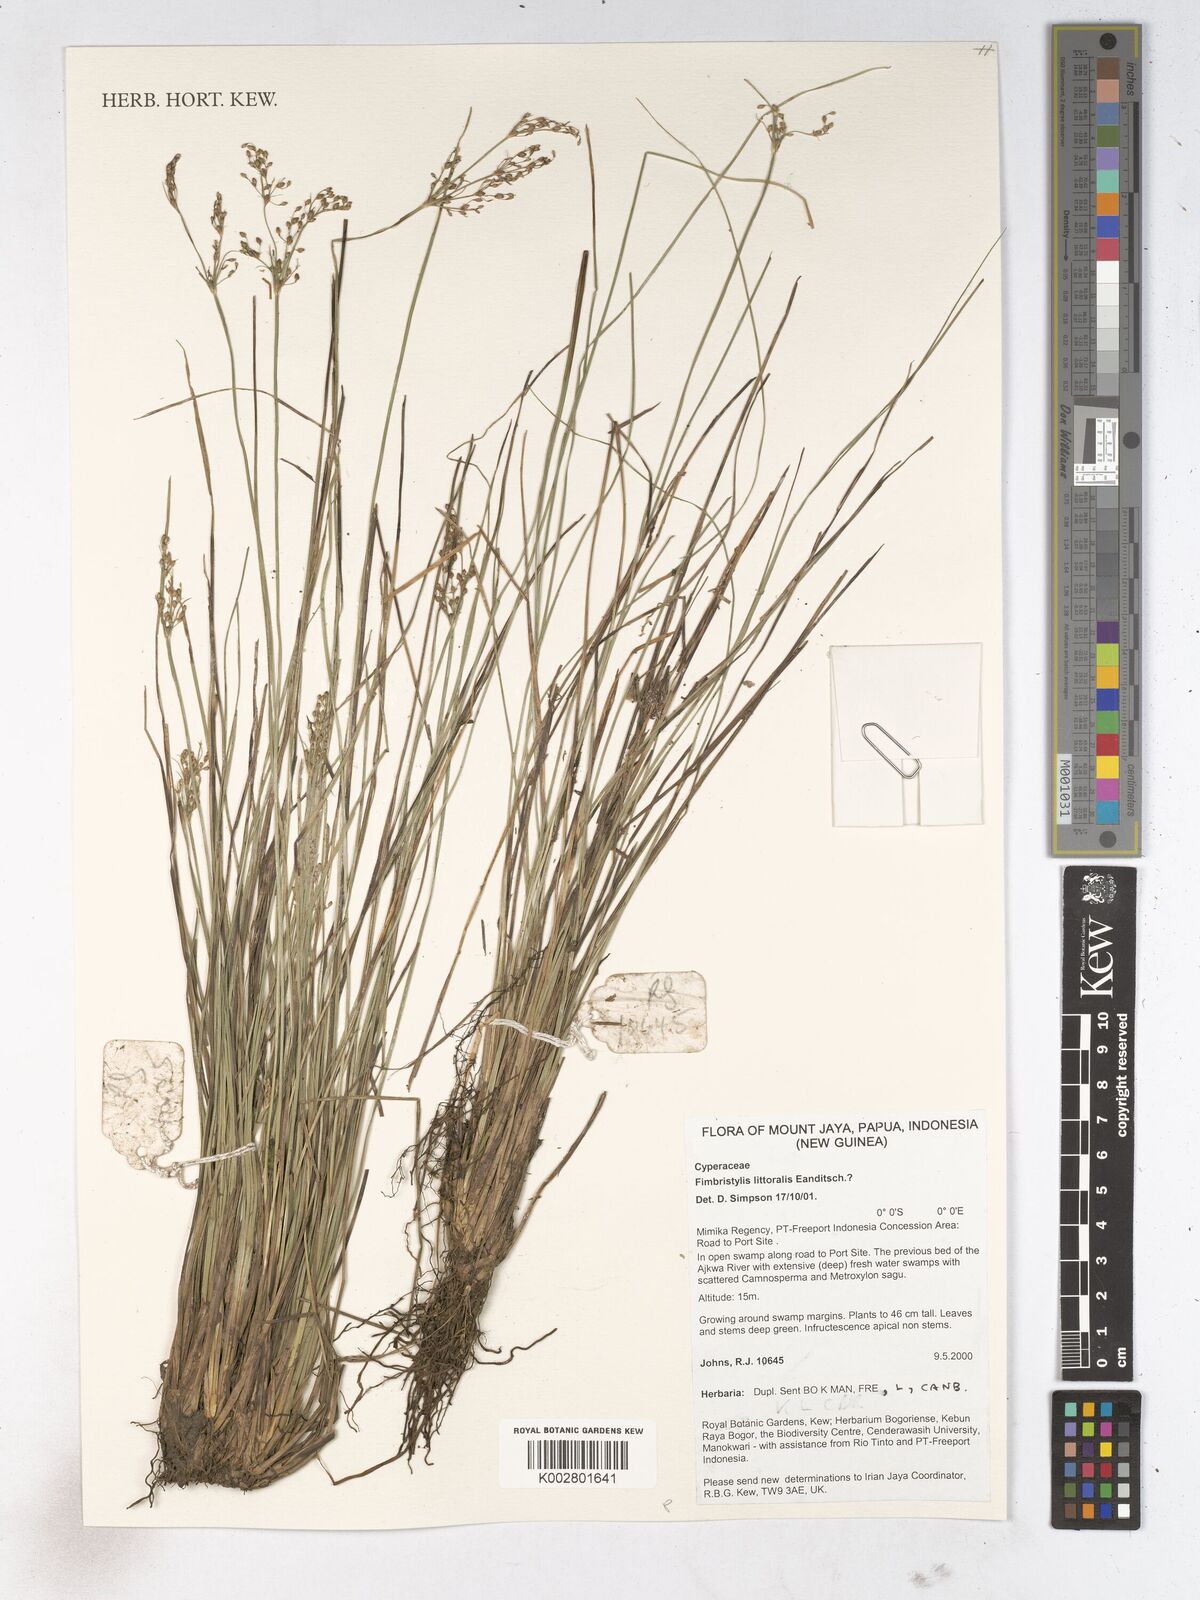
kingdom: Plantae
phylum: Tracheophyta
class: Liliopsida
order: Poales
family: Cyperaceae
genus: Fimbristylis
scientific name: Fimbristylis littoralis
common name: Fimbry
